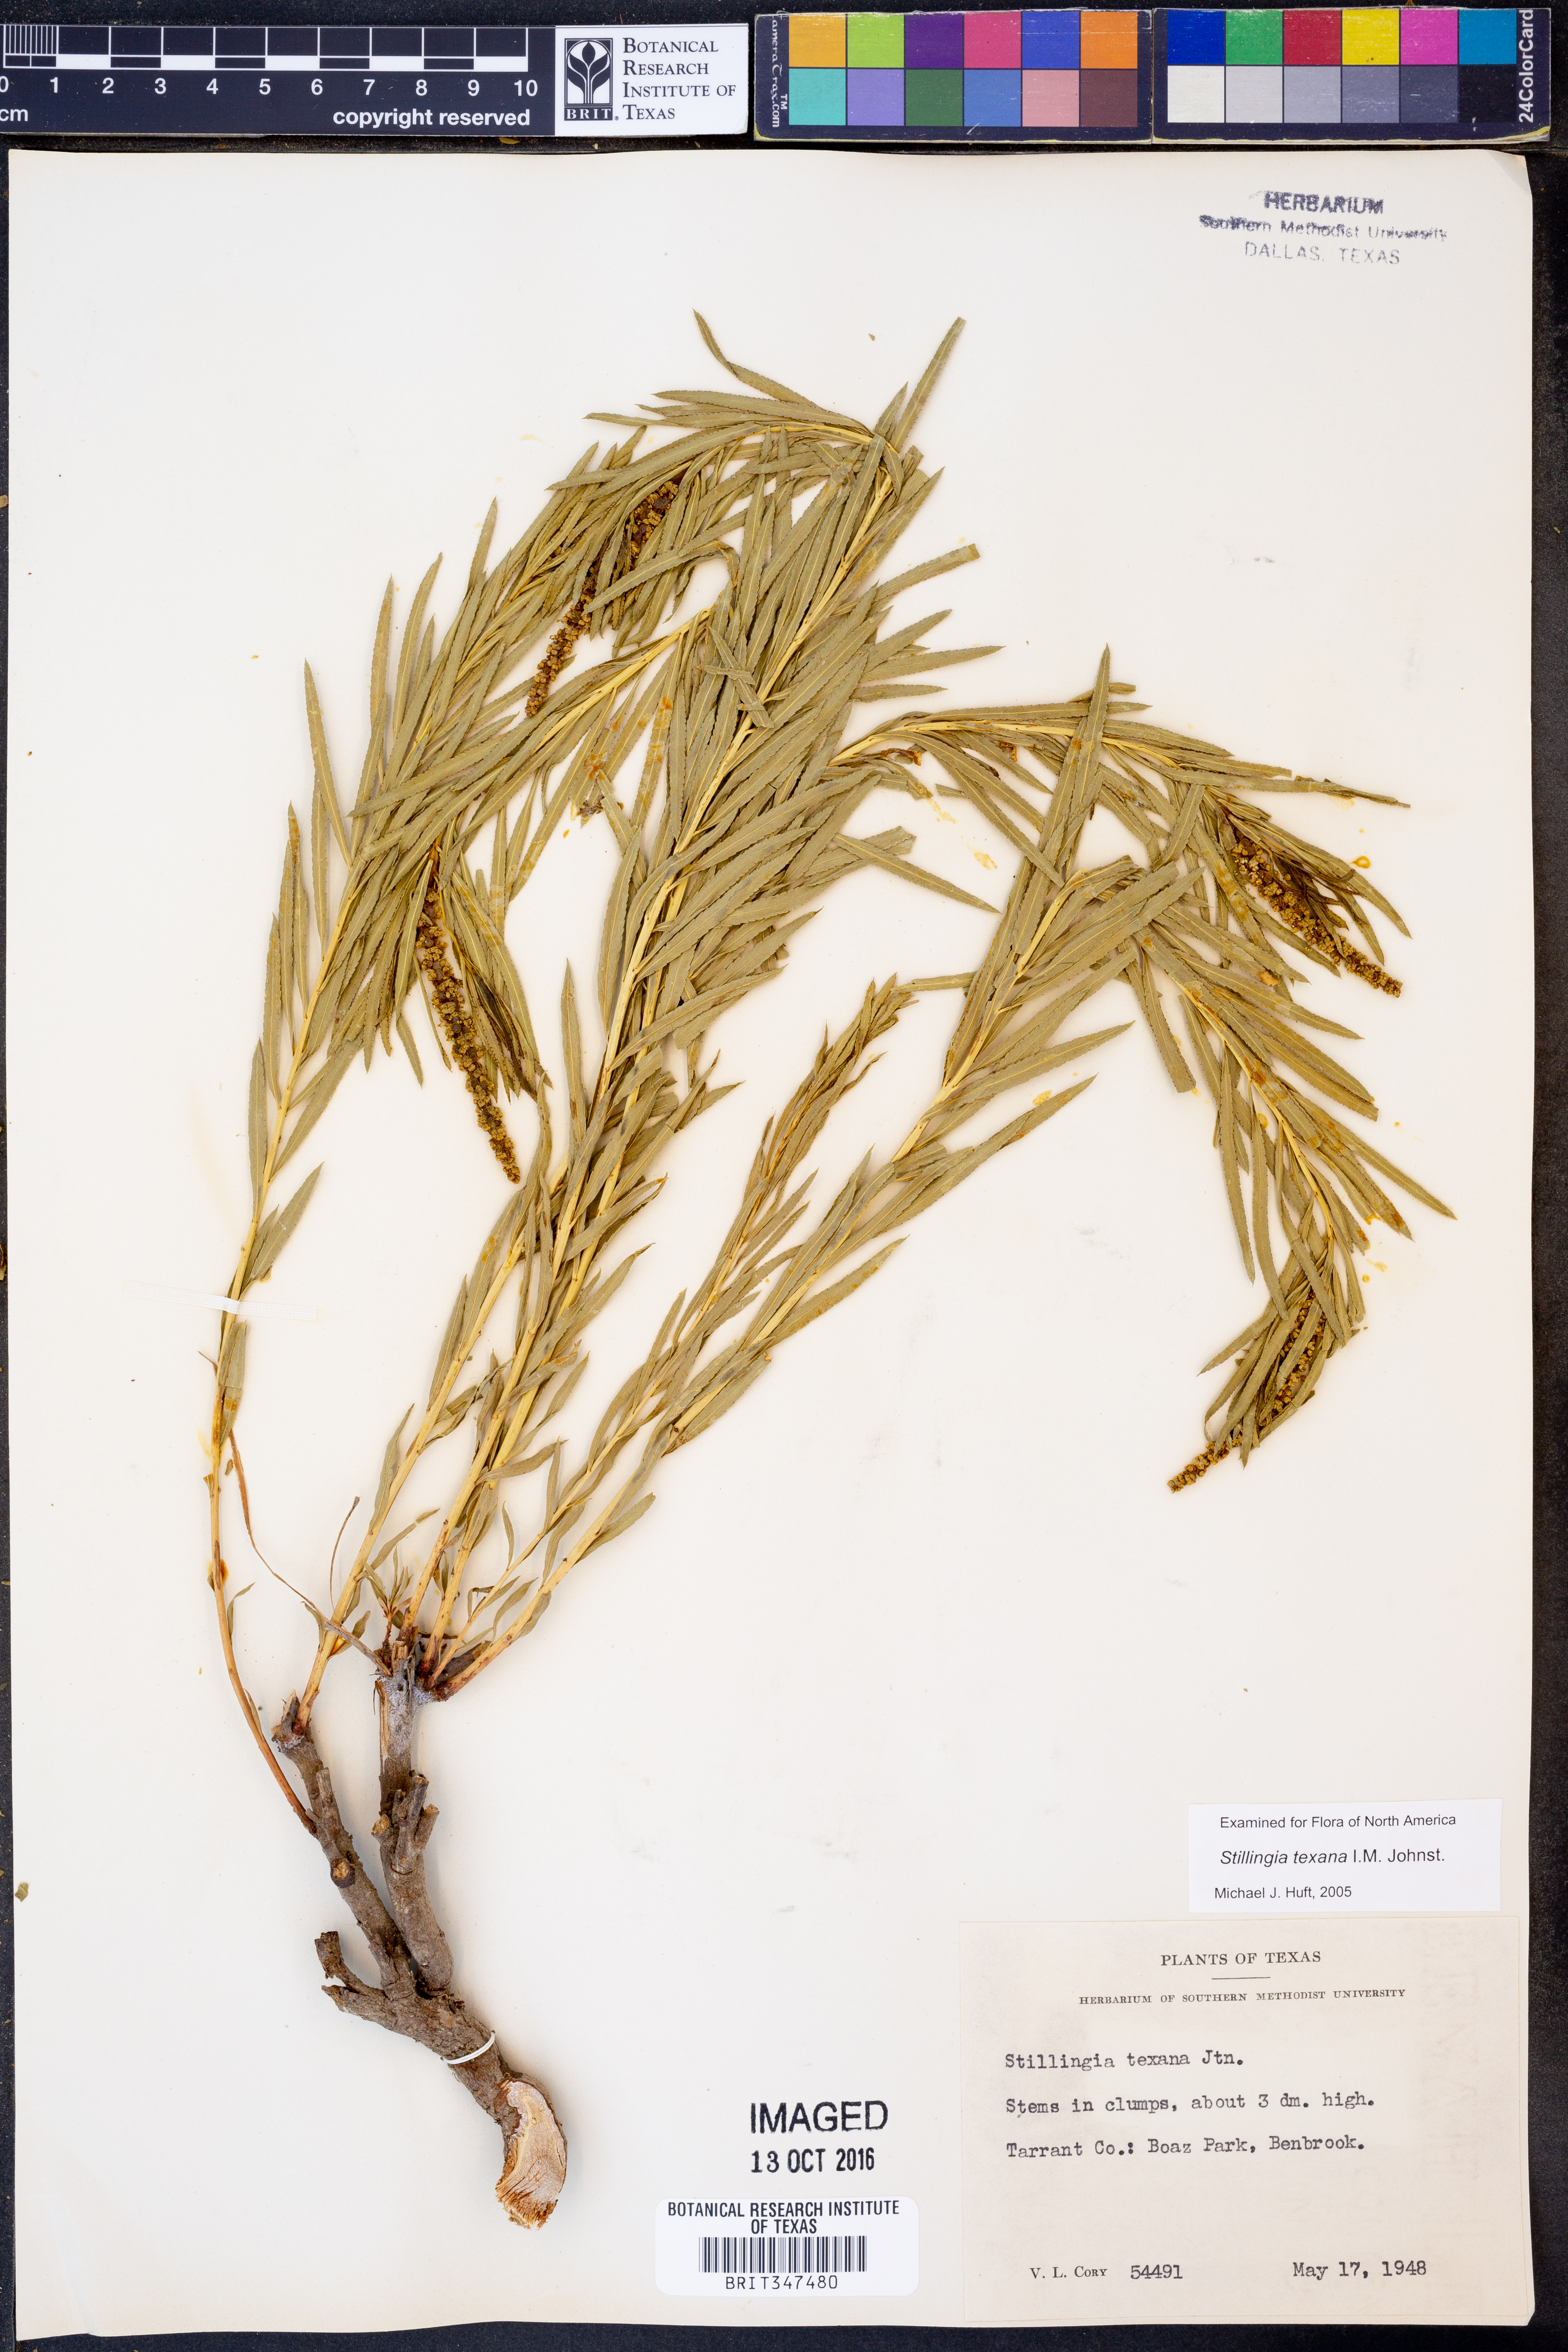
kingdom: Plantae
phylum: Tracheophyta
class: Magnoliopsida
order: Malpighiales
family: Euphorbiaceae
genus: Stillingia
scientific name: Stillingia texana
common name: Texas stillingia
